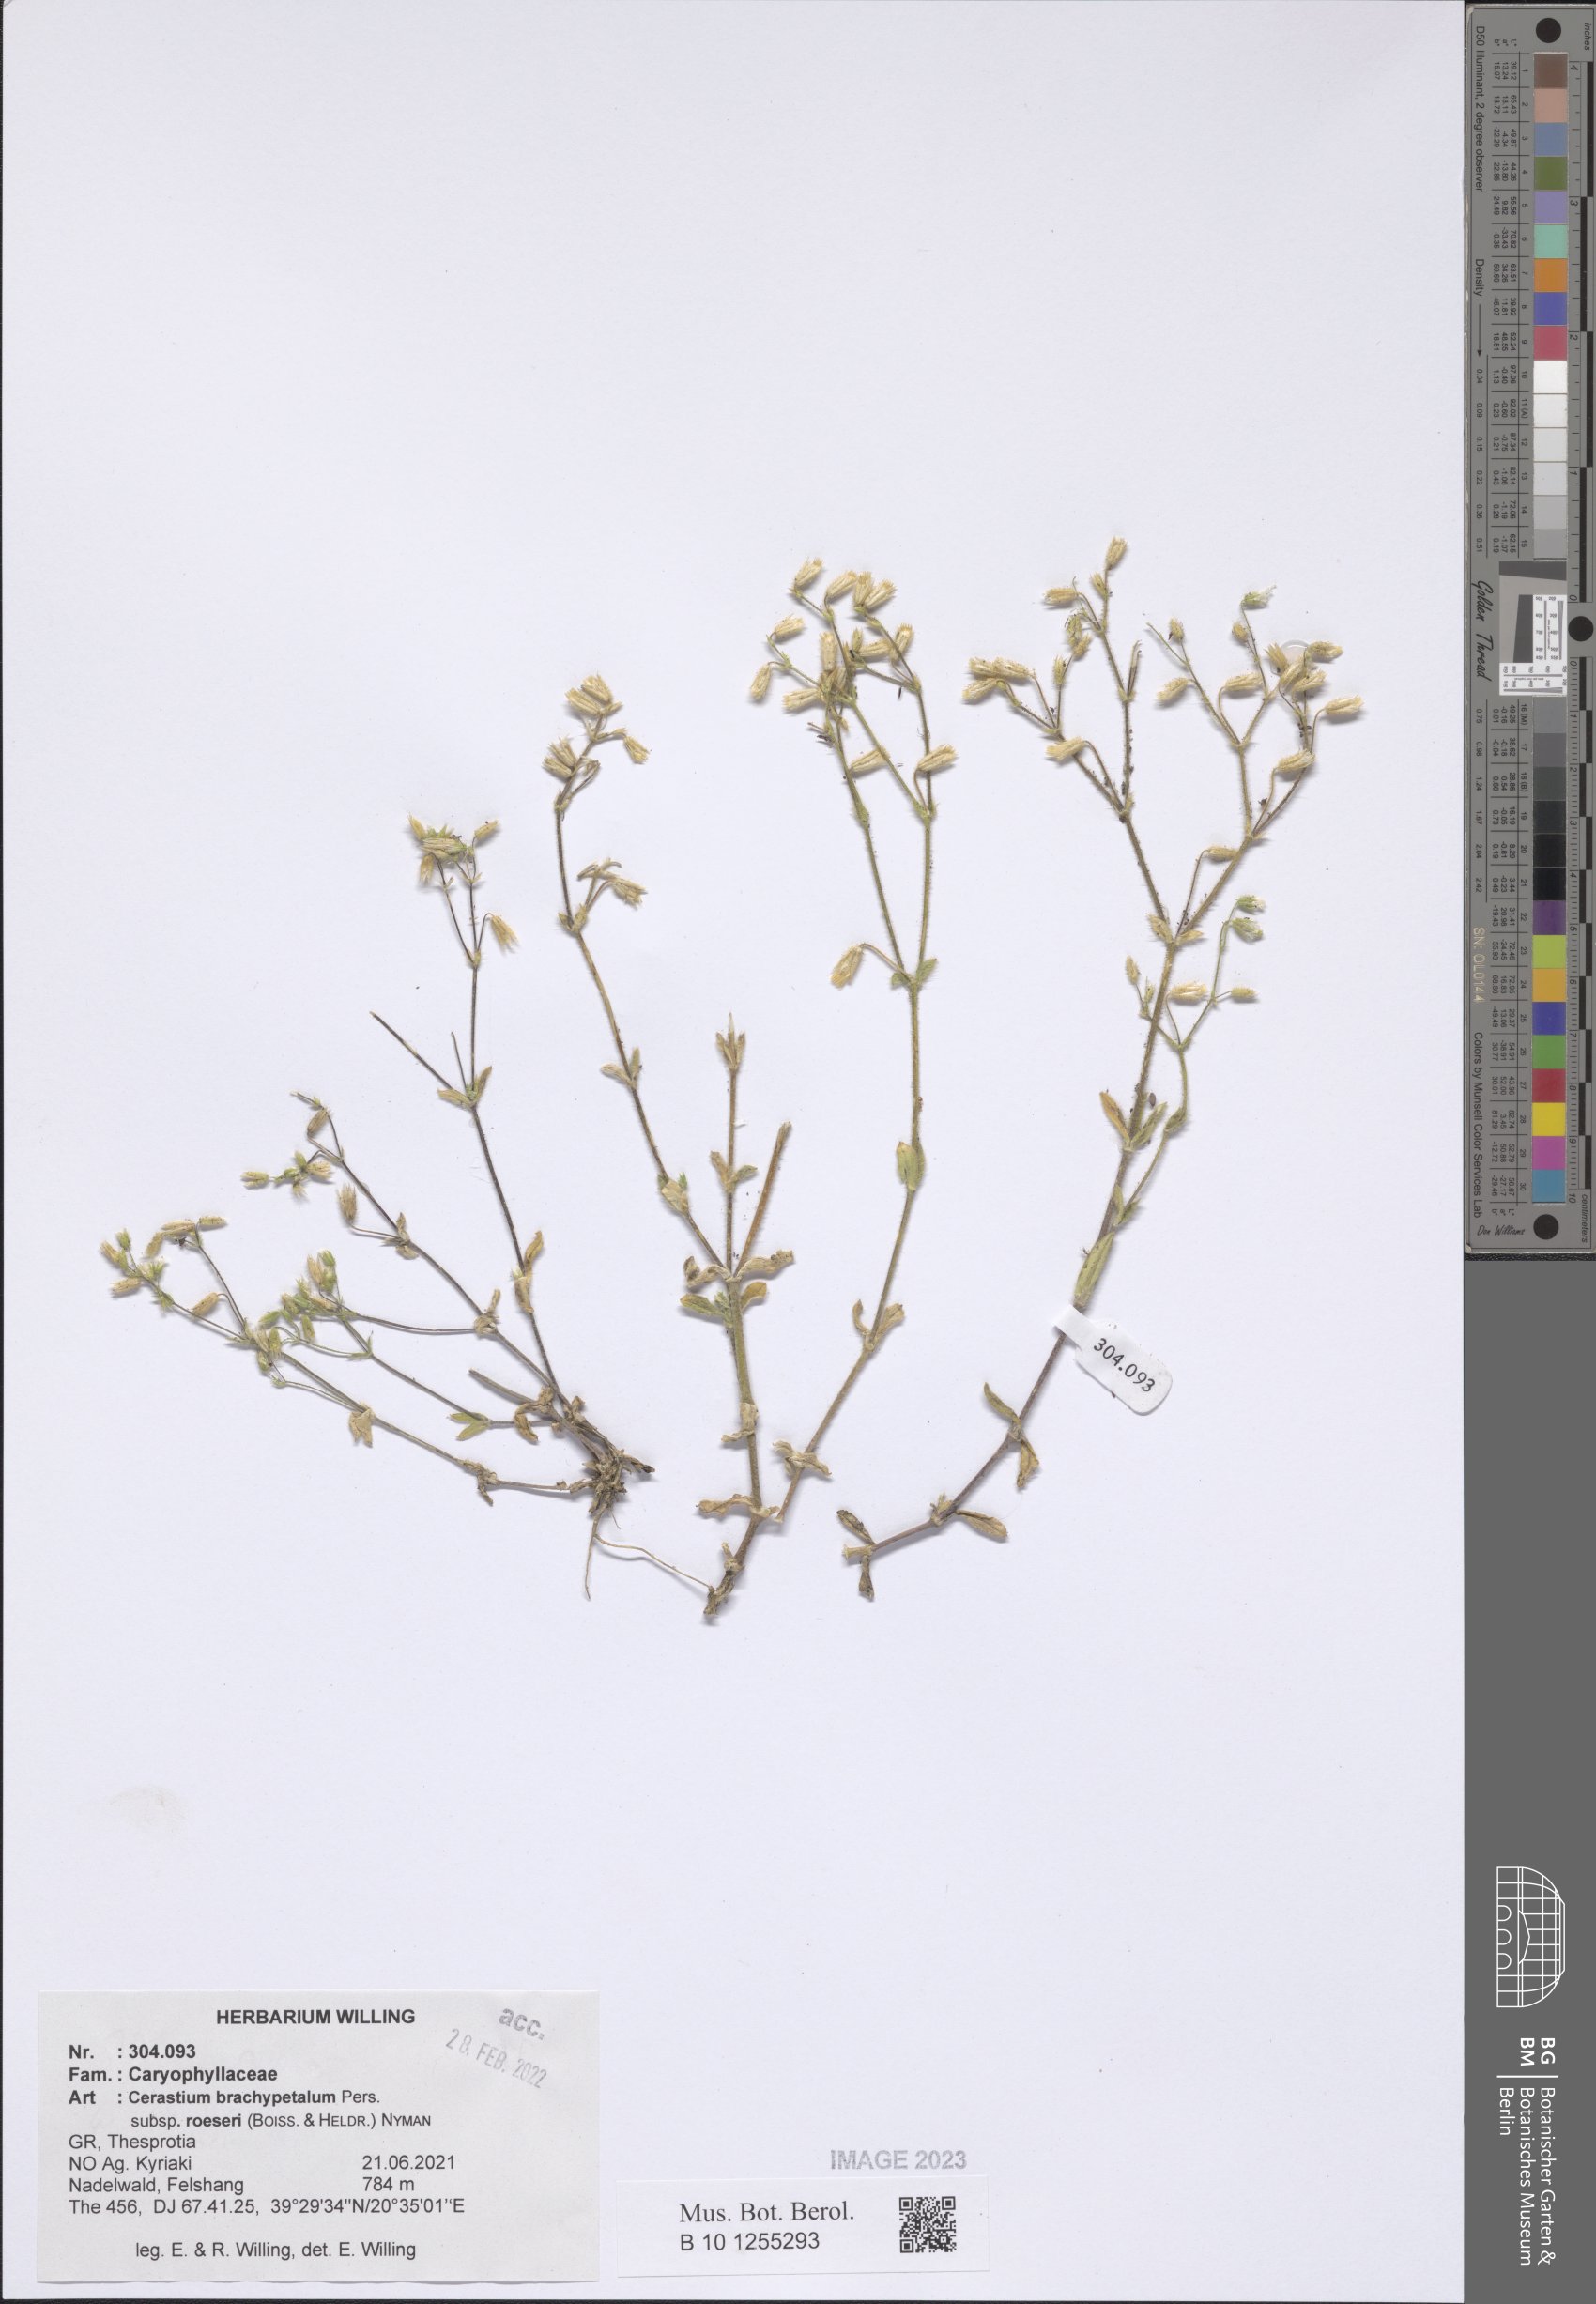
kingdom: Plantae
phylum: Tracheophyta
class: Magnoliopsida
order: Caryophyllales
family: Caryophyllaceae
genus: Cerastium
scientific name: Cerastium brachypetalum
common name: Grey mouse-ear
